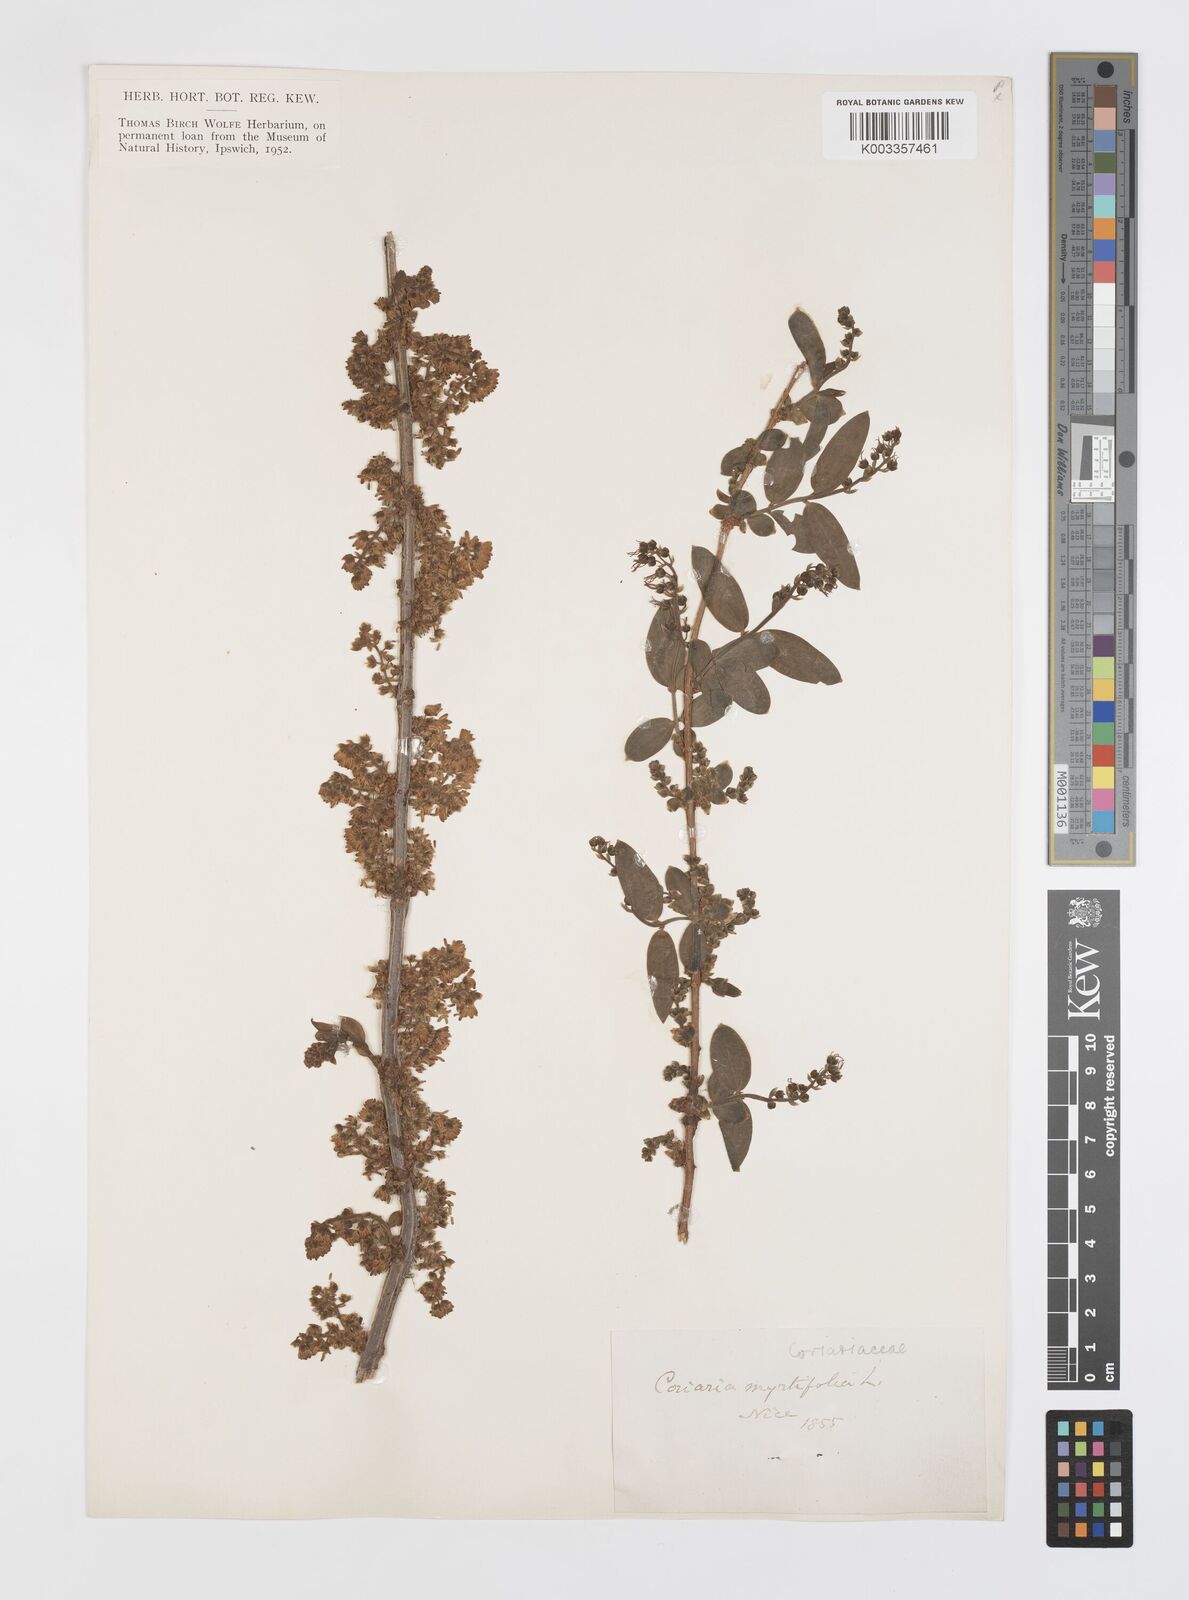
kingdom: Plantae
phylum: Tracheophyta
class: Magnoliopsida
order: Cucurbitales
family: Coriariaceae
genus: Coriaria
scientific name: Coriaria myrtifolia
